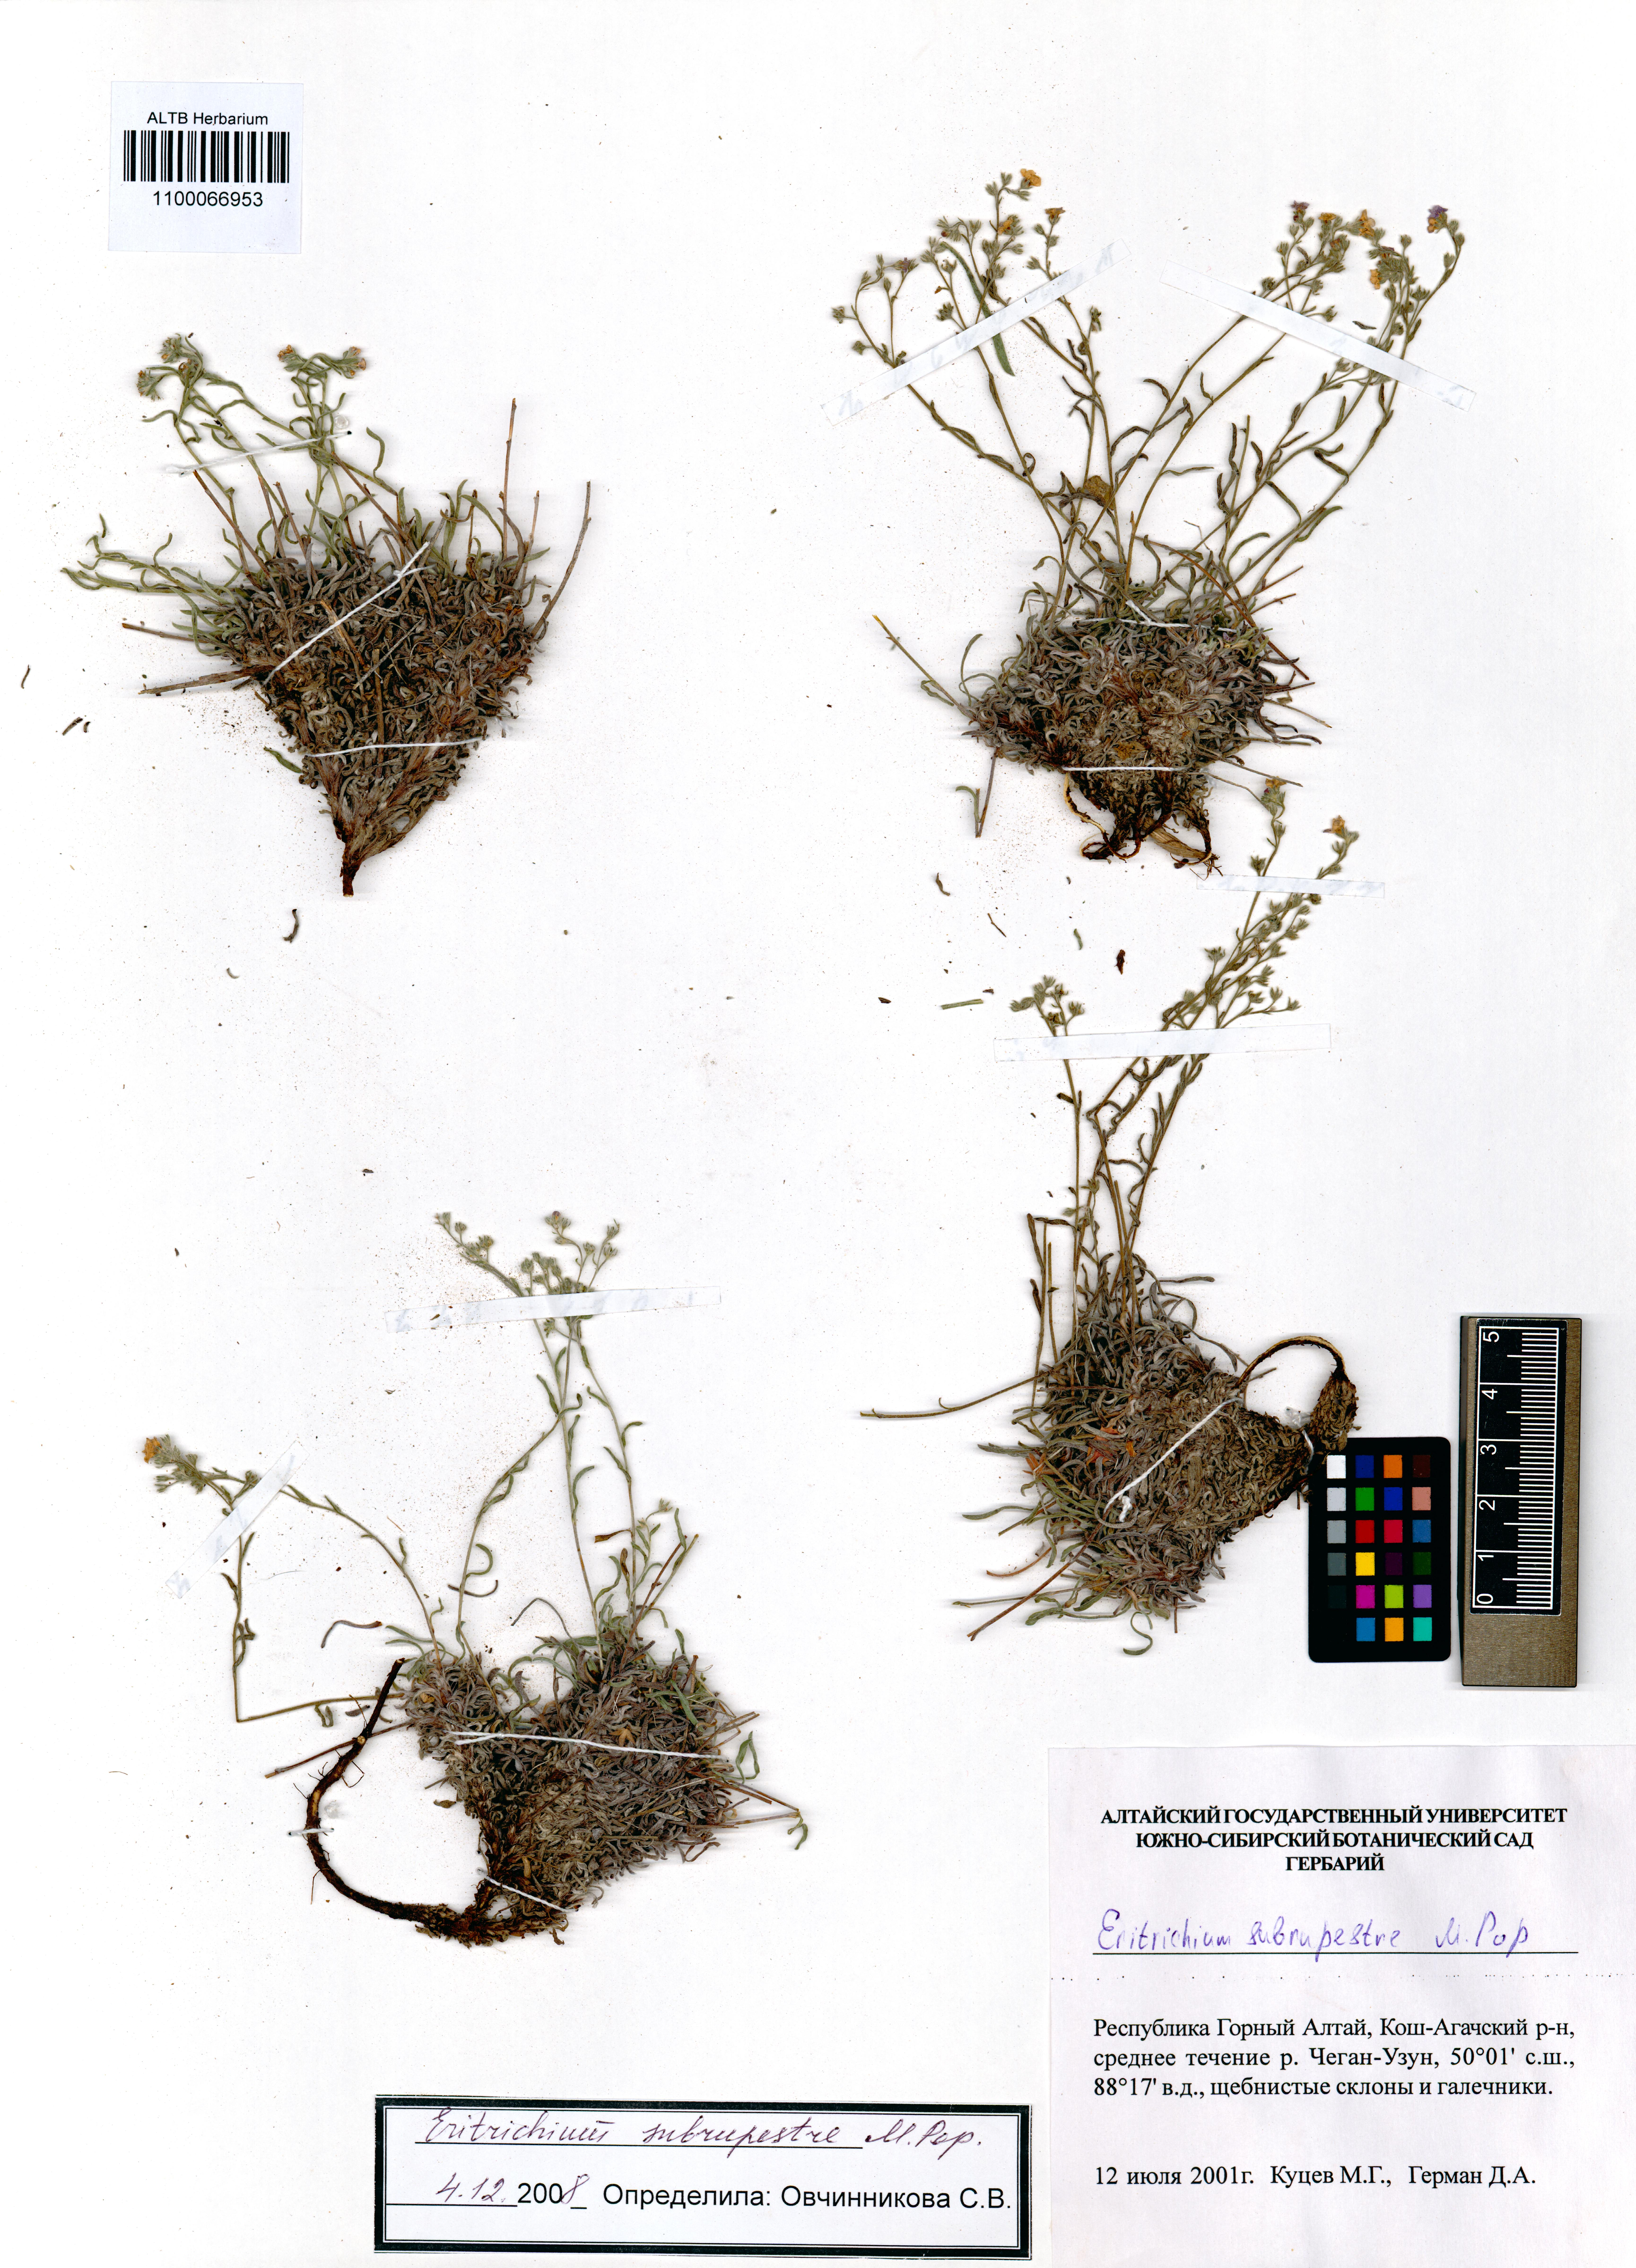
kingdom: Plantae
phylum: Tracheophyta
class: Magnoliopsida
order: Boraginales
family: Boraginaceae
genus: Eritrichium
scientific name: Eritrichium pauciflorum
